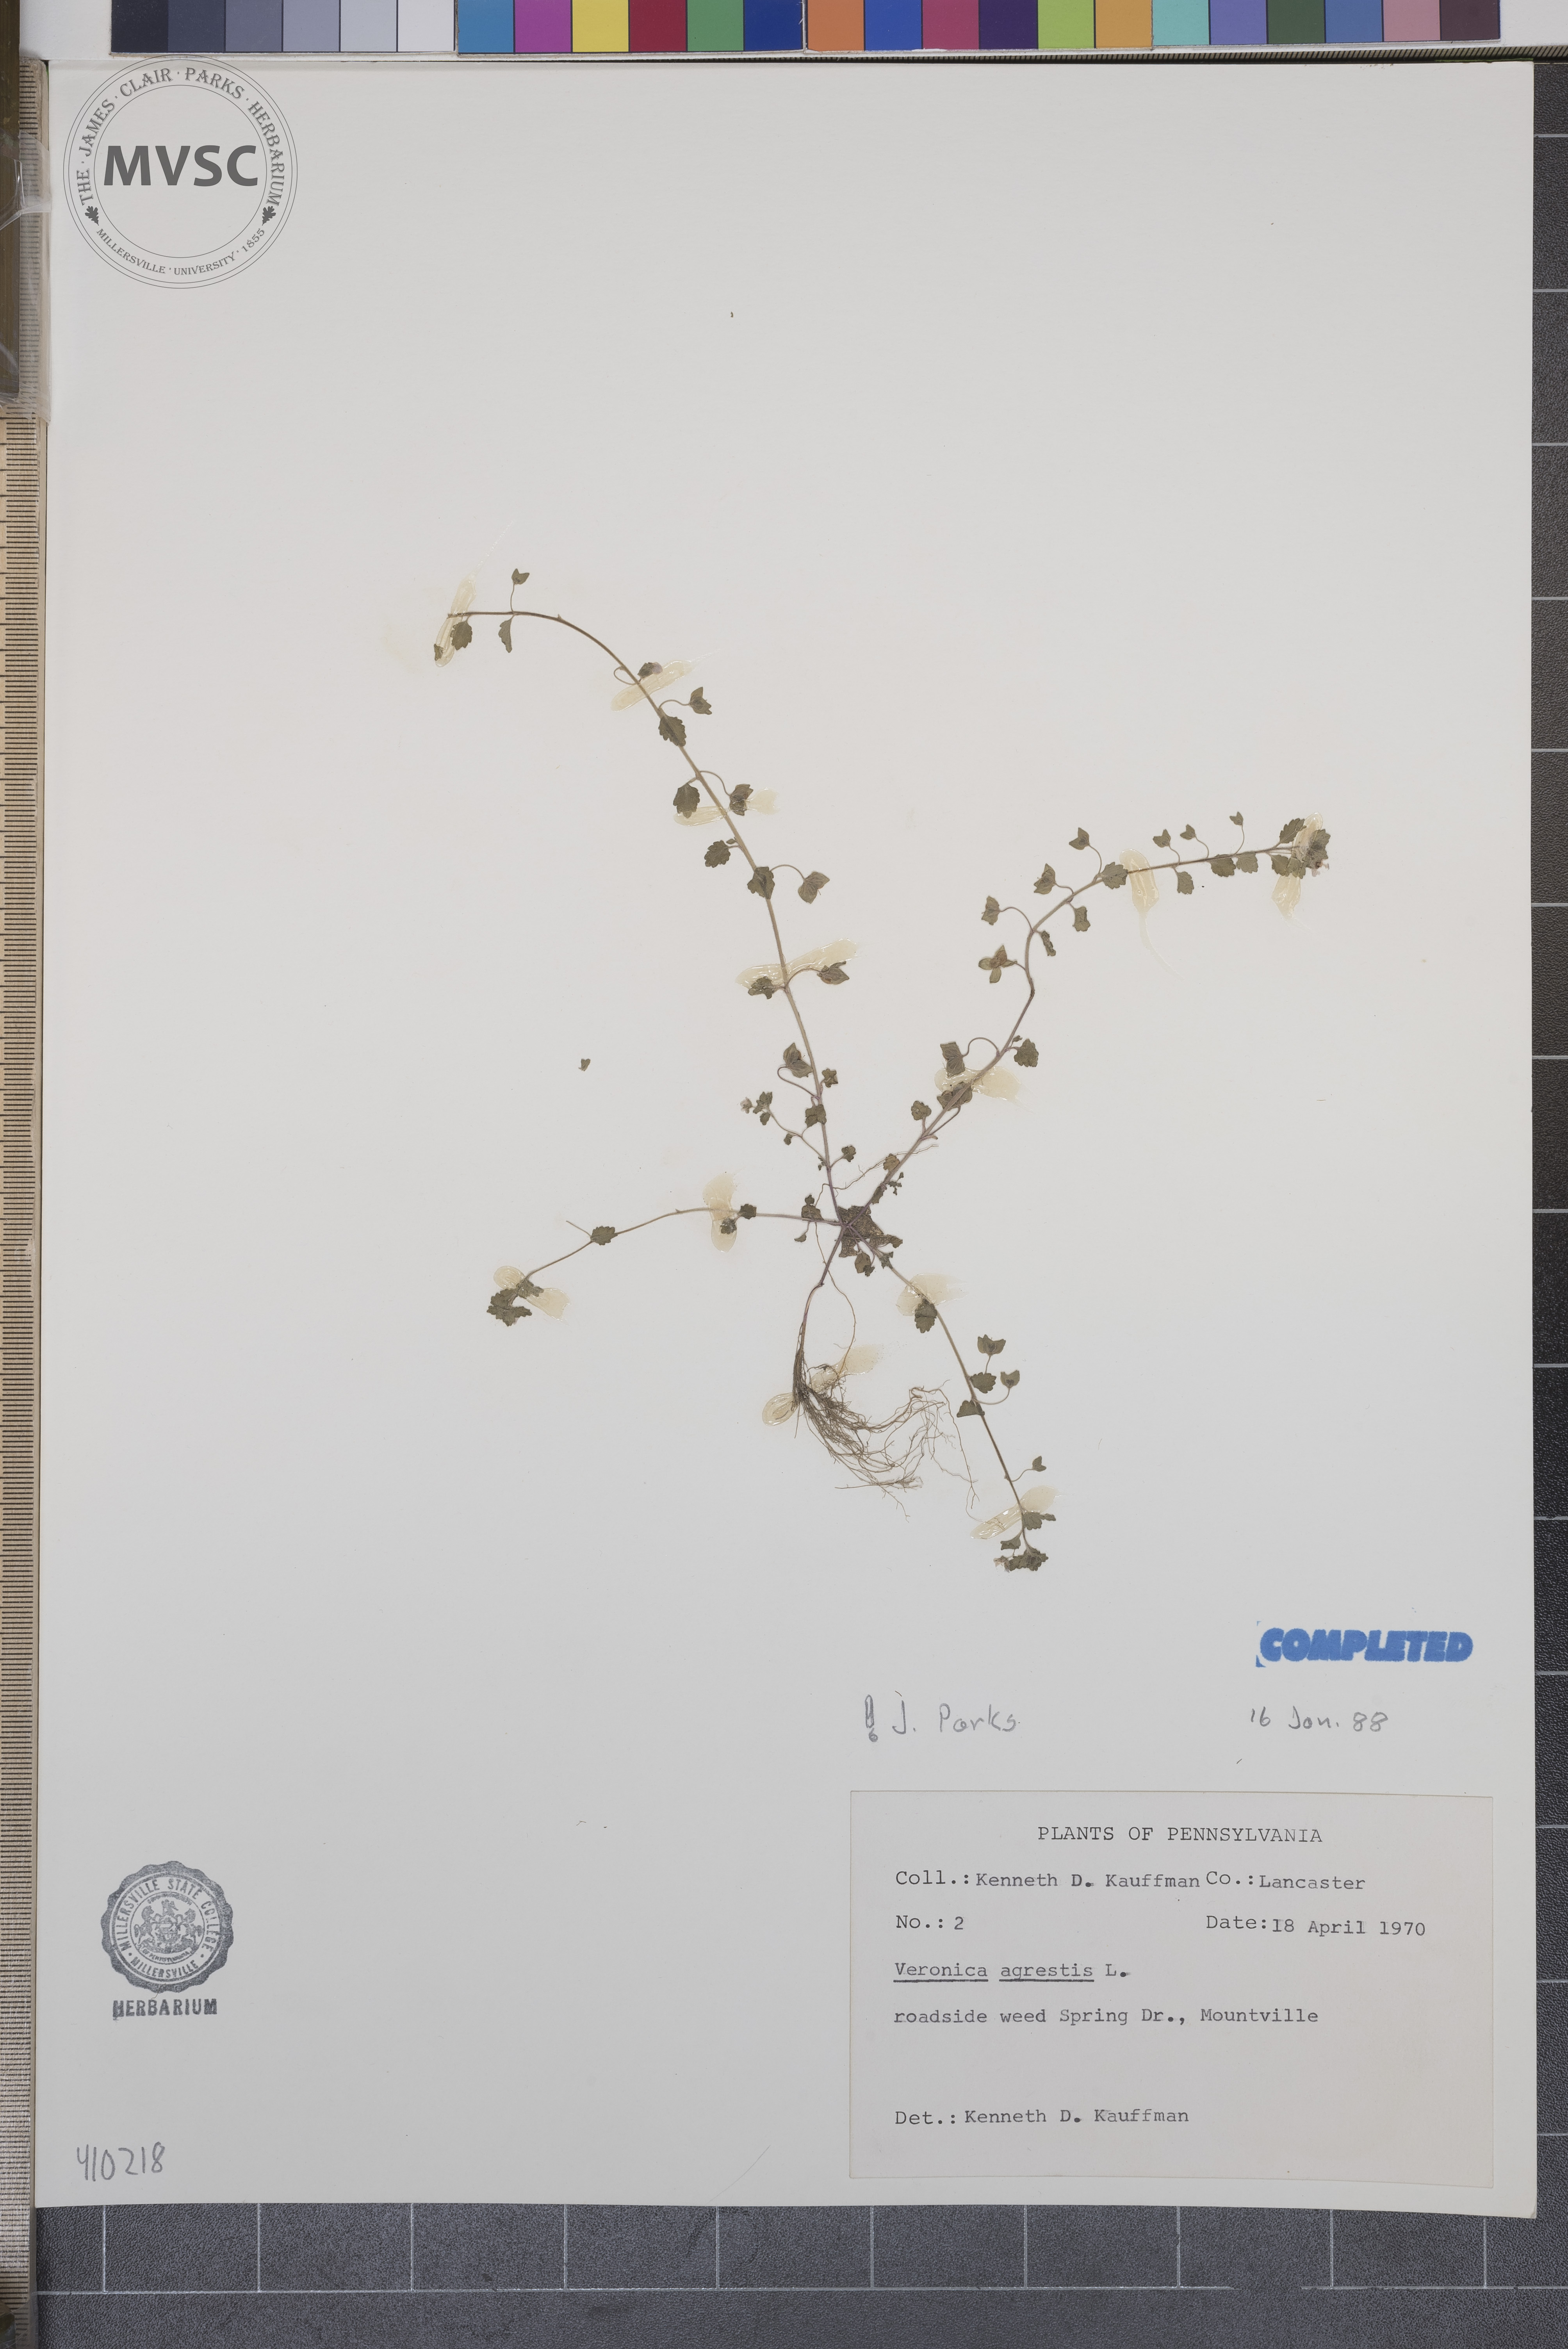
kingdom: Plantae
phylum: Tracheophyta
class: Magnoliopsida
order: Lamiales
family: Plantaginaceae
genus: Veronica
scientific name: Veronica agrestis
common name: Green field-speedwell
